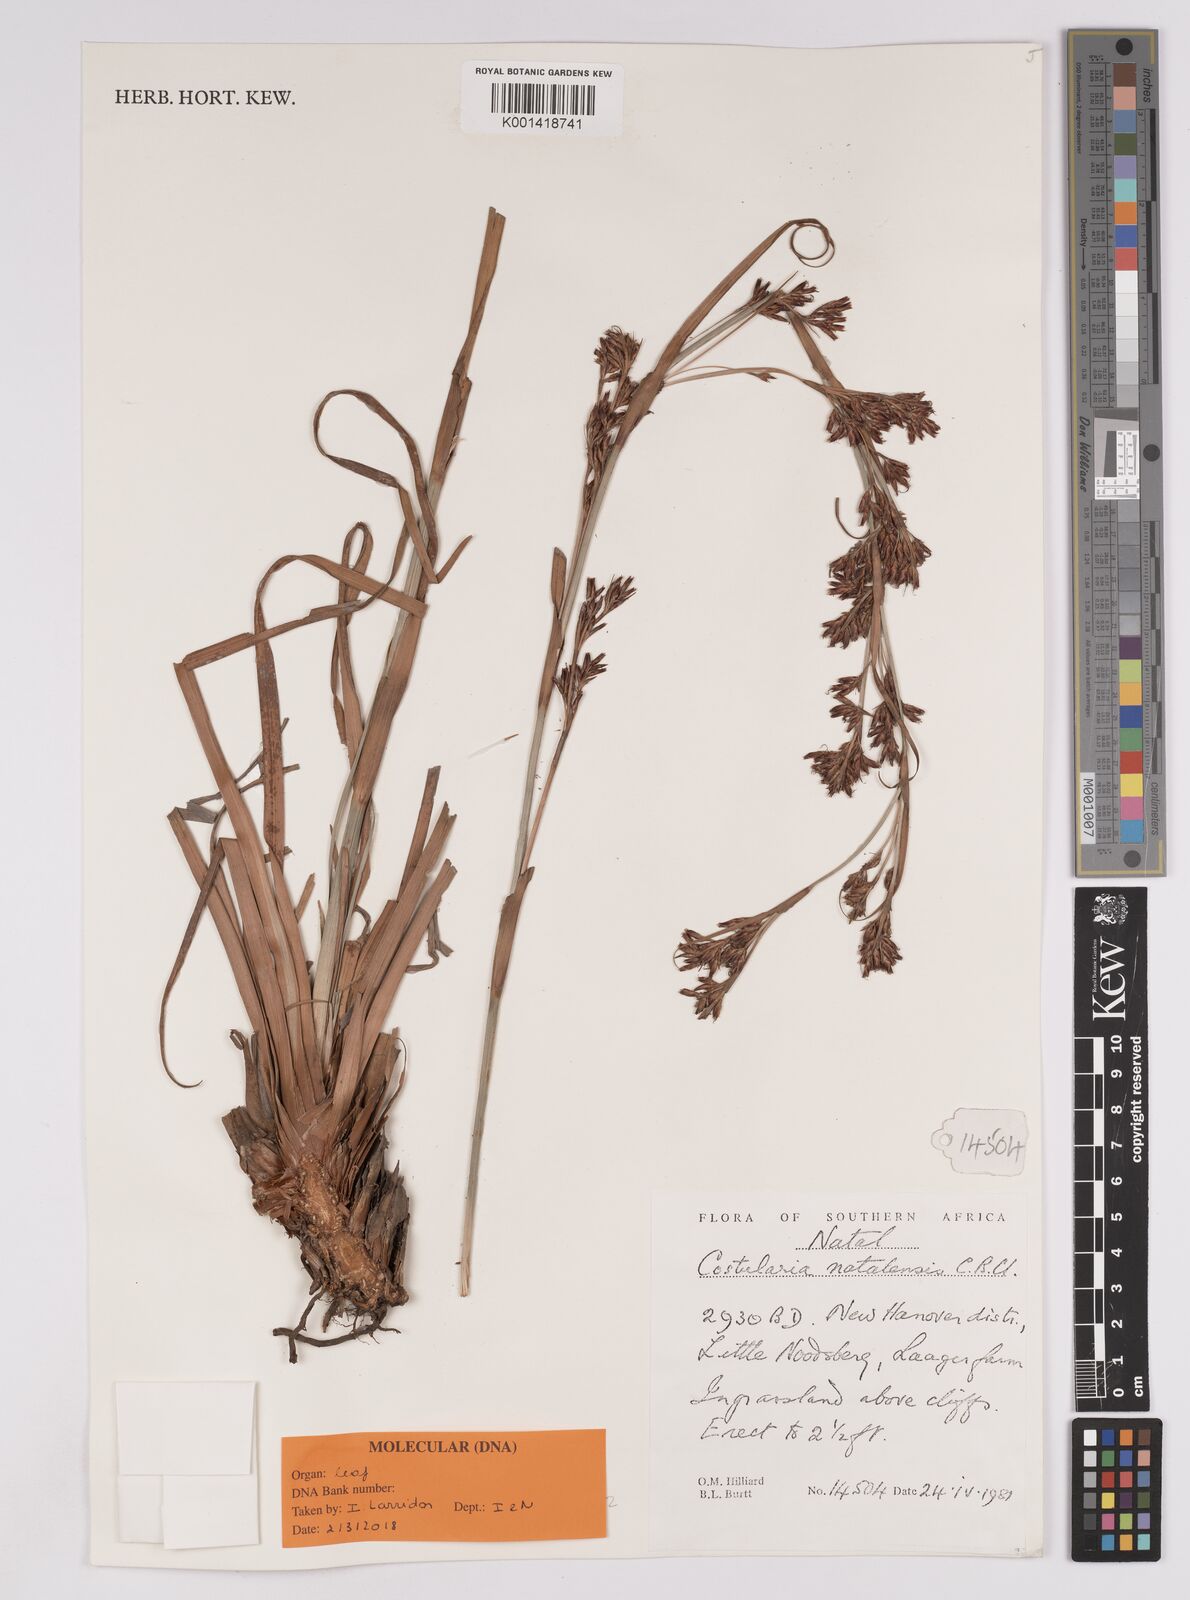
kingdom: Plantae
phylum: Tracheophyta
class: Liliopsida
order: Poales
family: Cyperaceae
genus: Costularia
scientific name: Costularia natalensis
